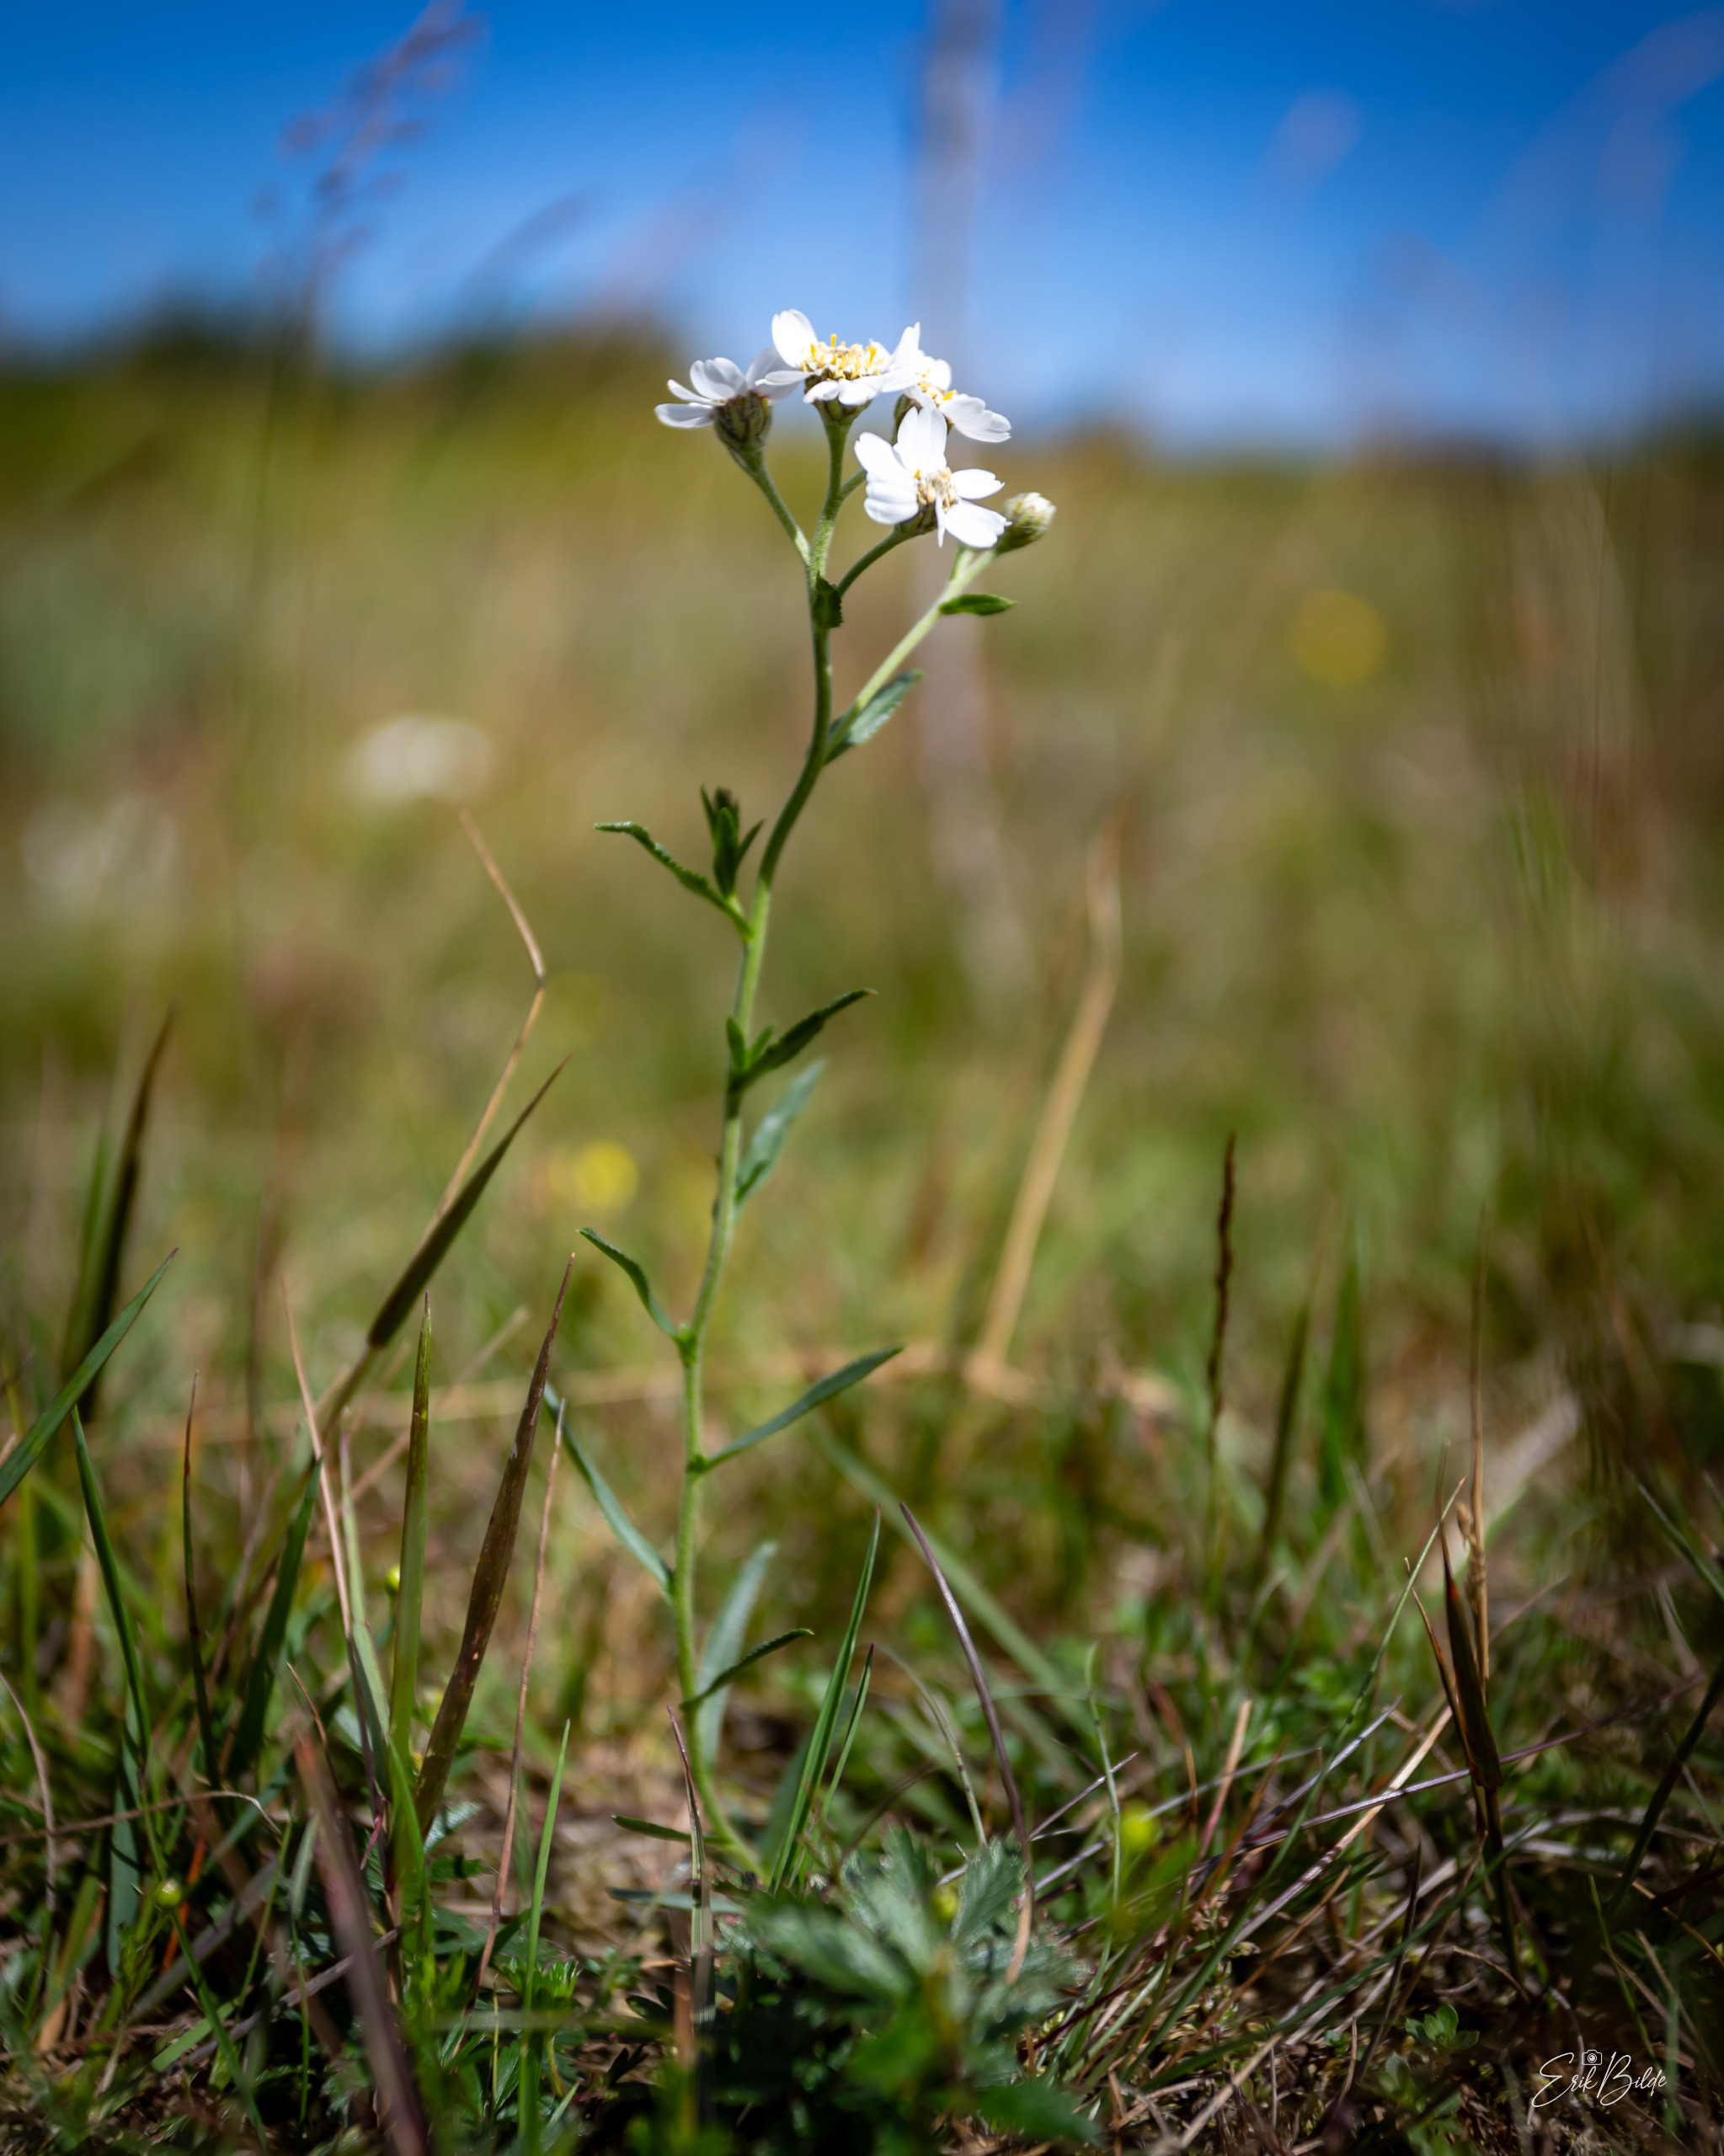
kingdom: Plantae
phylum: Tracheophyta
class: Magnoliopsida
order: Asterales
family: Asteraceae
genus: Achillea
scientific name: Achillea ptarmica
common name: Nyse-røllike
